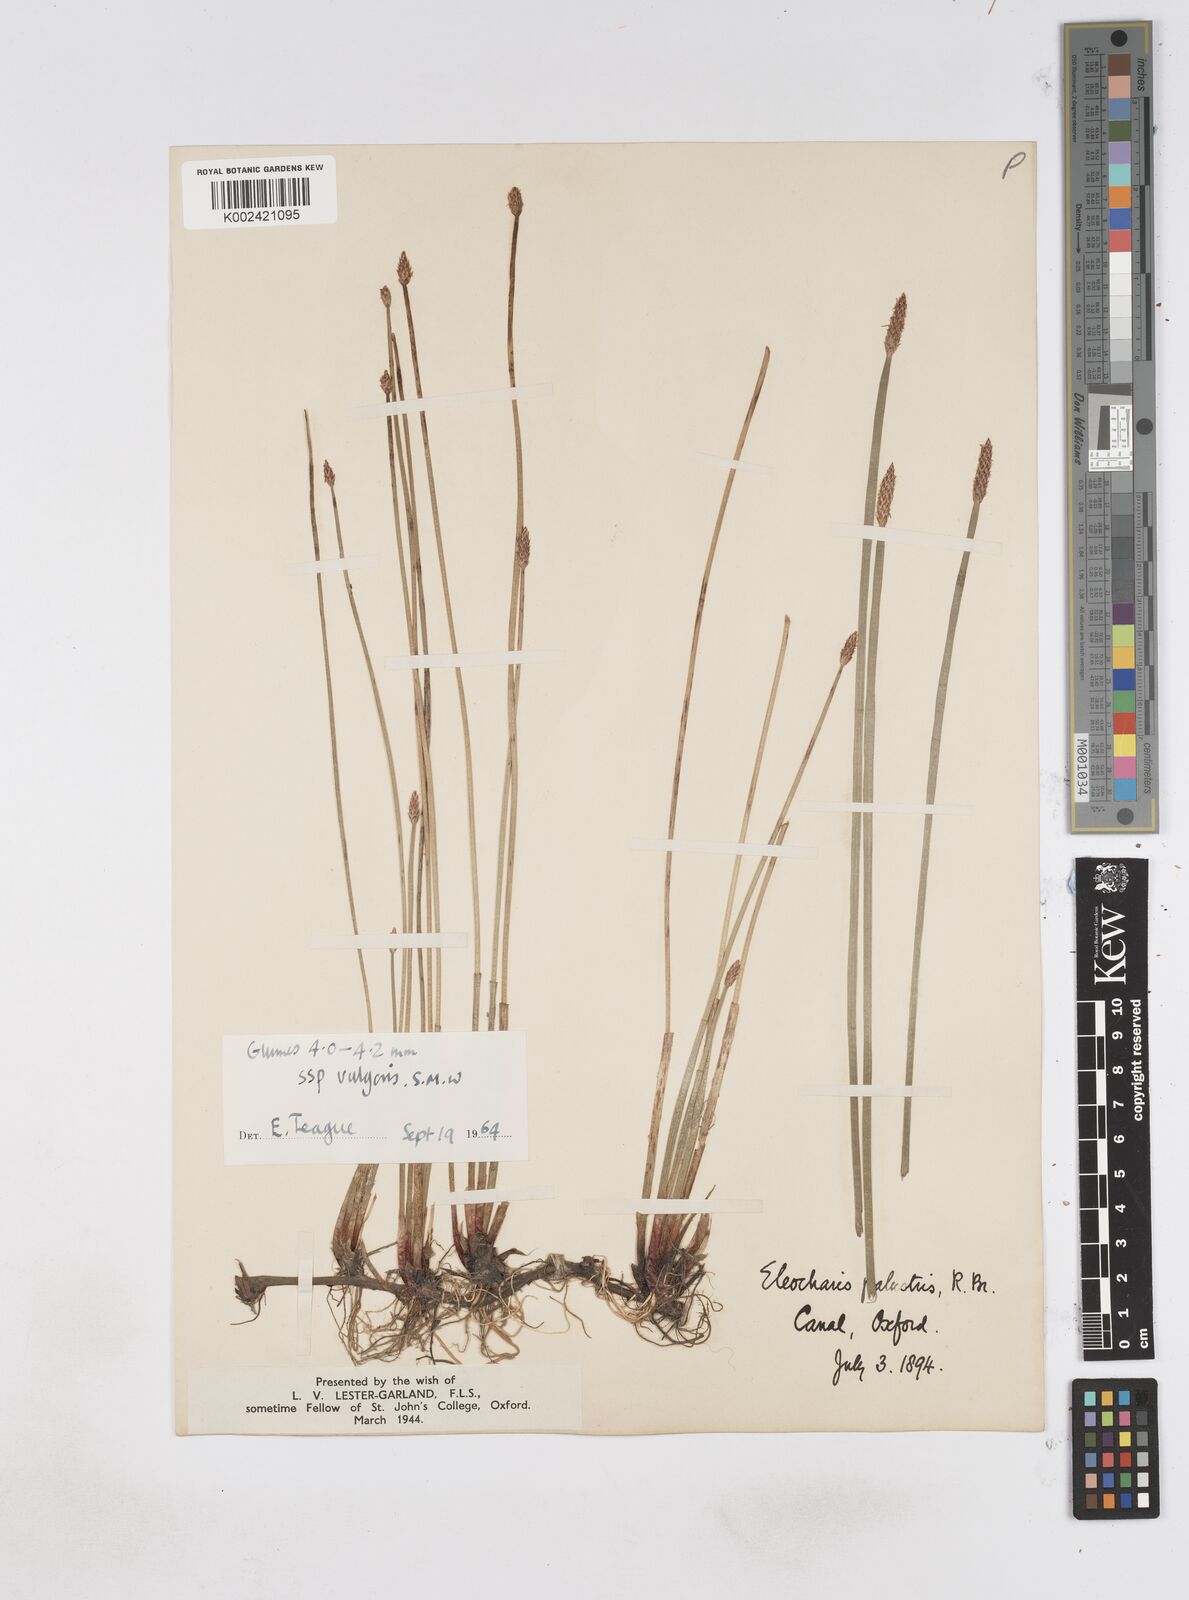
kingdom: Plantae
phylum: Tracheophyta
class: Liliopsida
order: Poales
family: Cyperaceae
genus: Eleocharis
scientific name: Eleocharis palustris
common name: Common spike-rush
